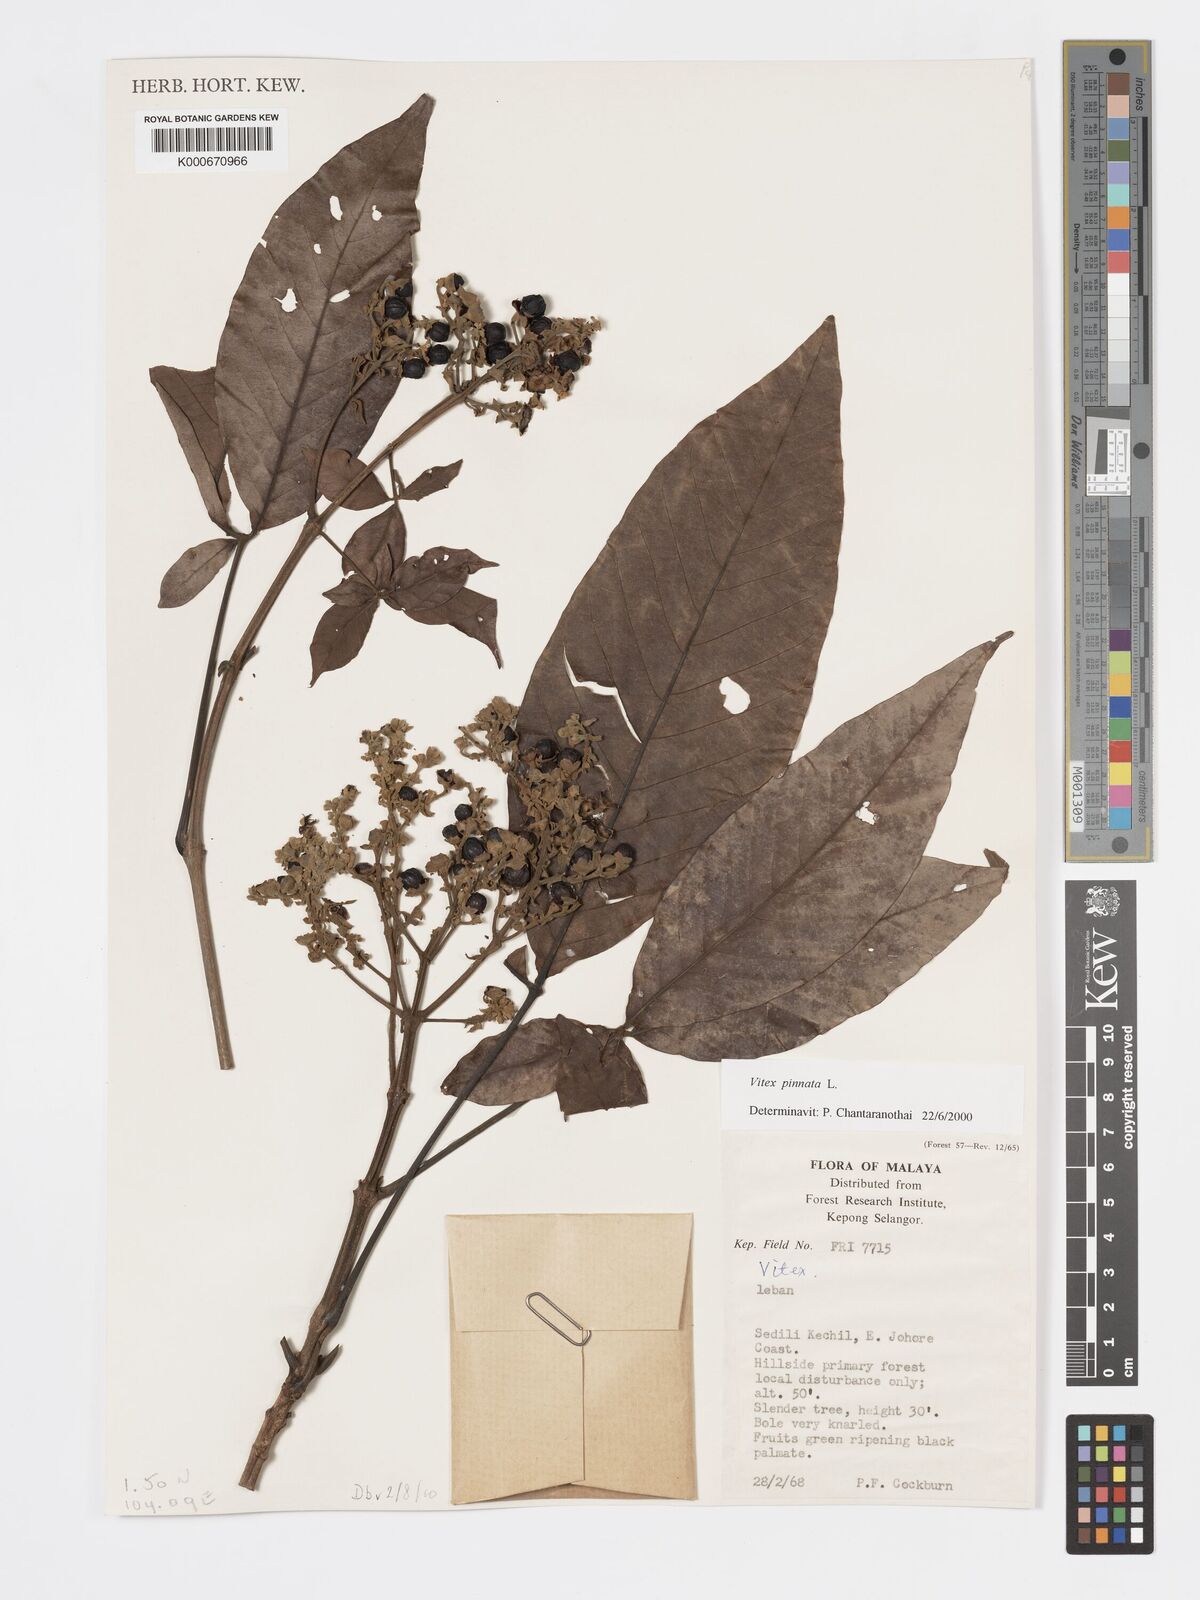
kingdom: Plantae
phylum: Tracheophyta
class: Magnoliopsida
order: Lamiales
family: Lamiaceae
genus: Vitex
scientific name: Vitex pinnata
